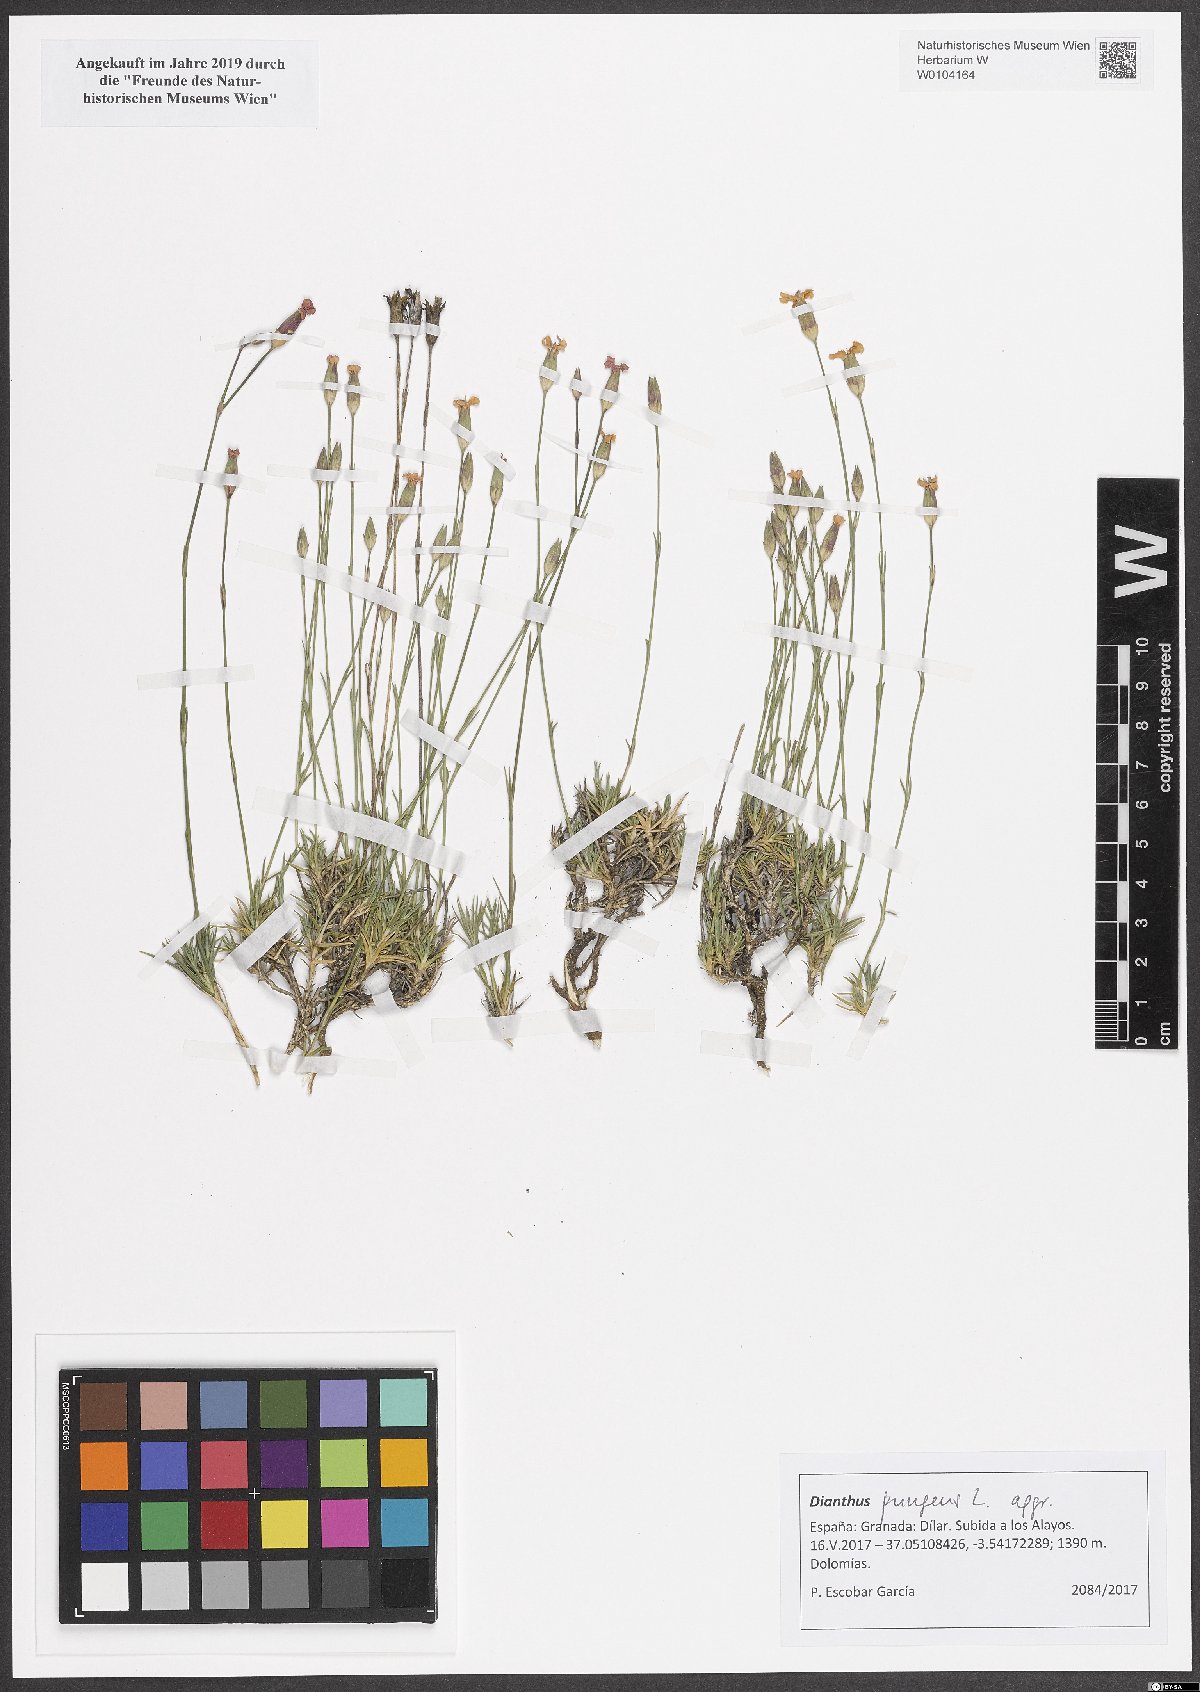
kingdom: Plantae
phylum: Tracheophyta
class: Magnoliopsida
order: Caryophyllales
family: Caryophyllaceae
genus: Dianthus
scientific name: Dianthus pungens
